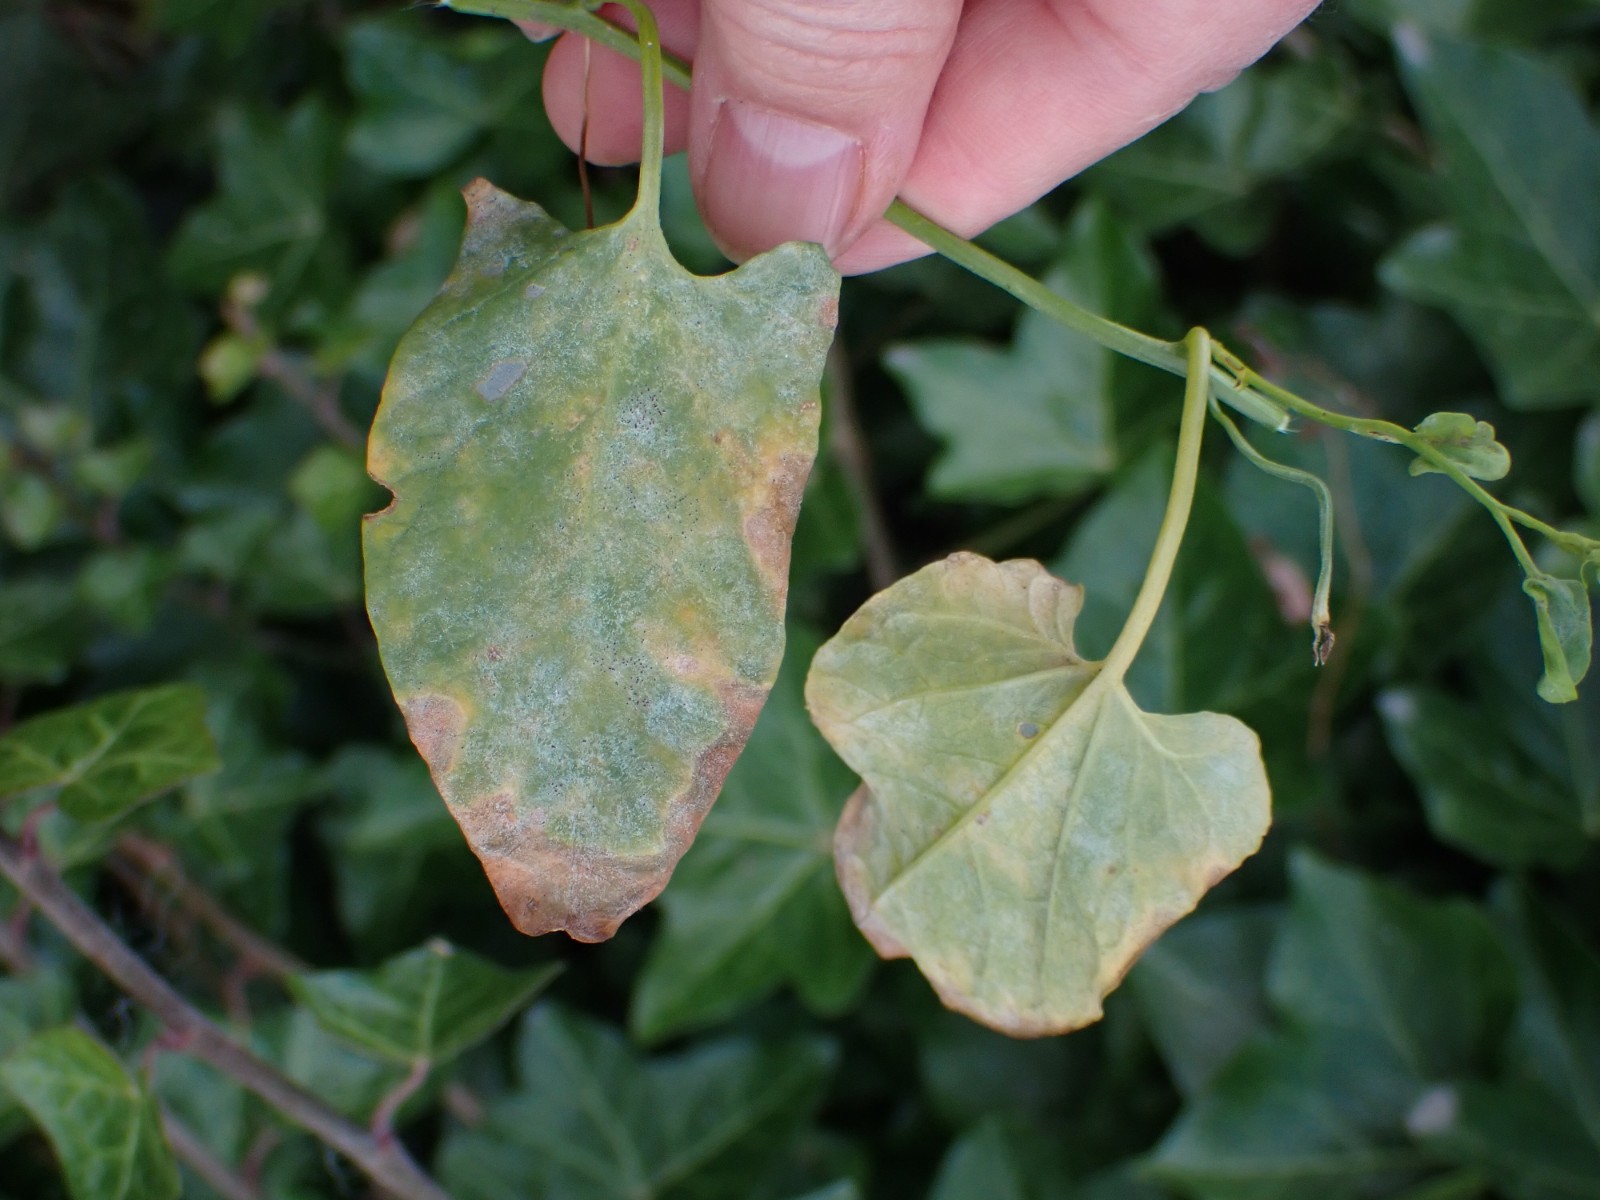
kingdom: Fungi
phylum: Ascomycota
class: Leotiomycetes
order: Helotiales
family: Erysiphaceae
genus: Erysiphe
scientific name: Erysiphe convolvuli
